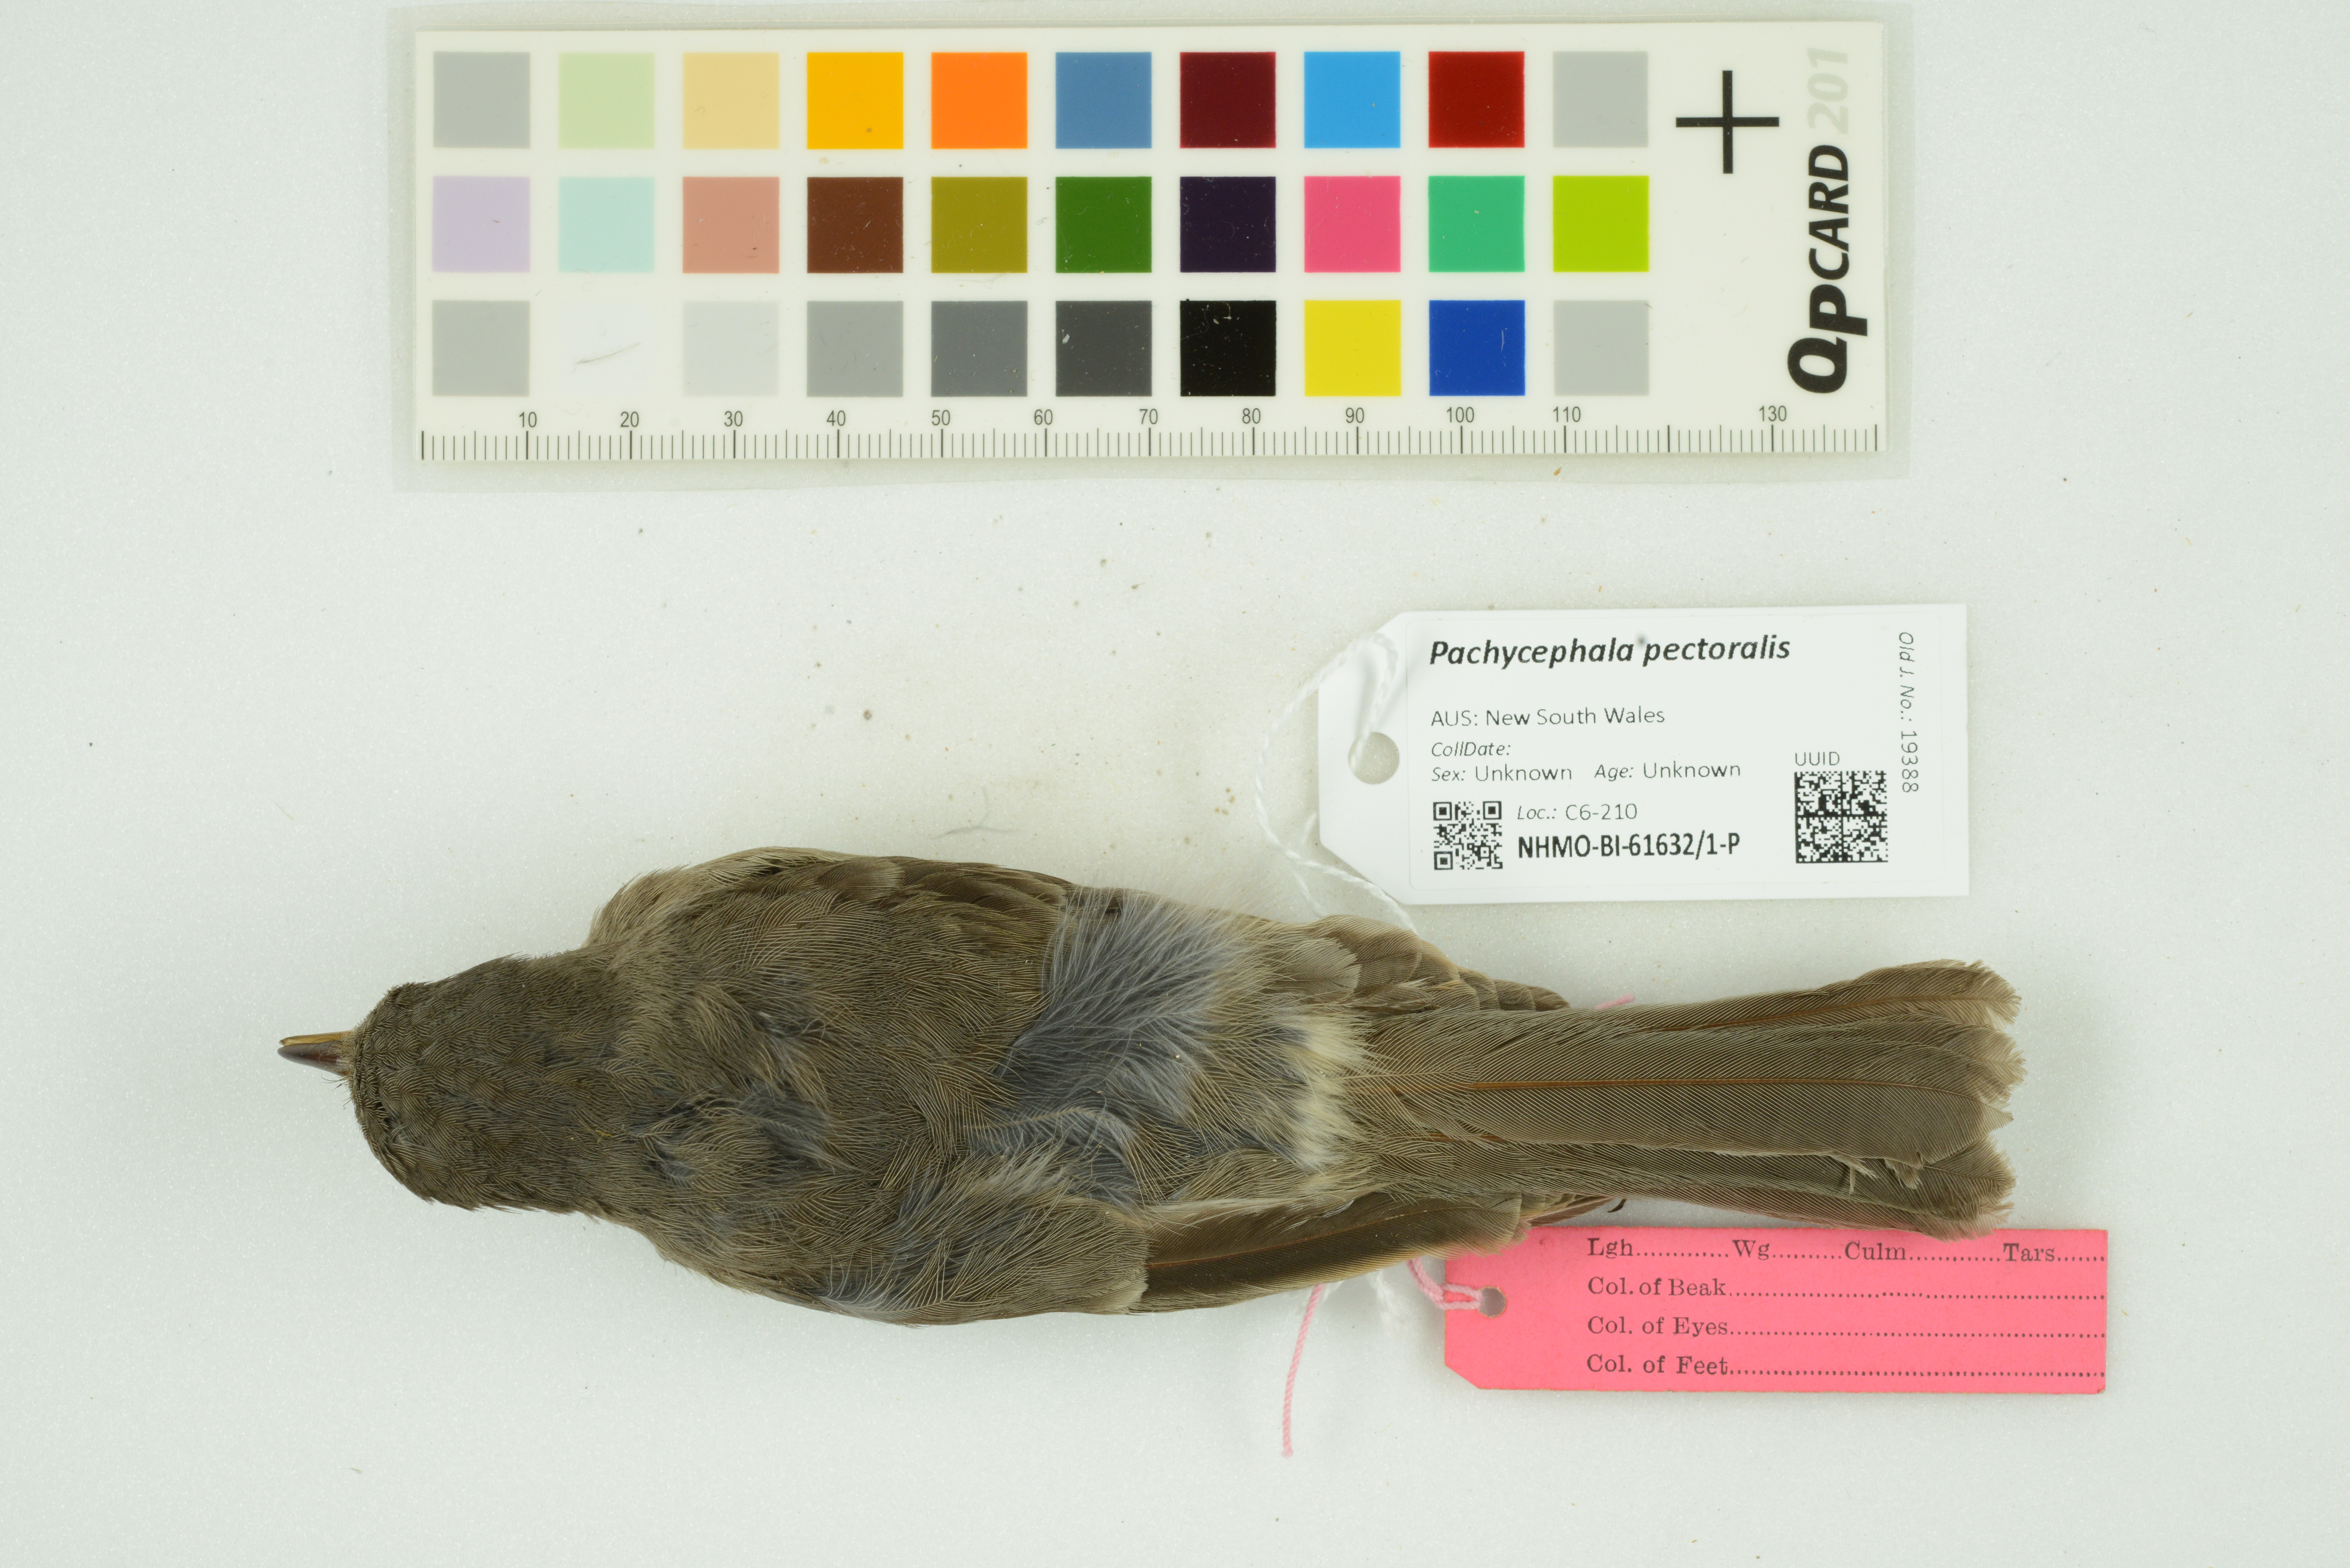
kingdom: Animalia
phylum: Chordata
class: Aves
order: Passeriformes
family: Pachycephalidae
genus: Pachycephala
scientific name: Pachycephala pectoralis
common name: Australian golden whistler
